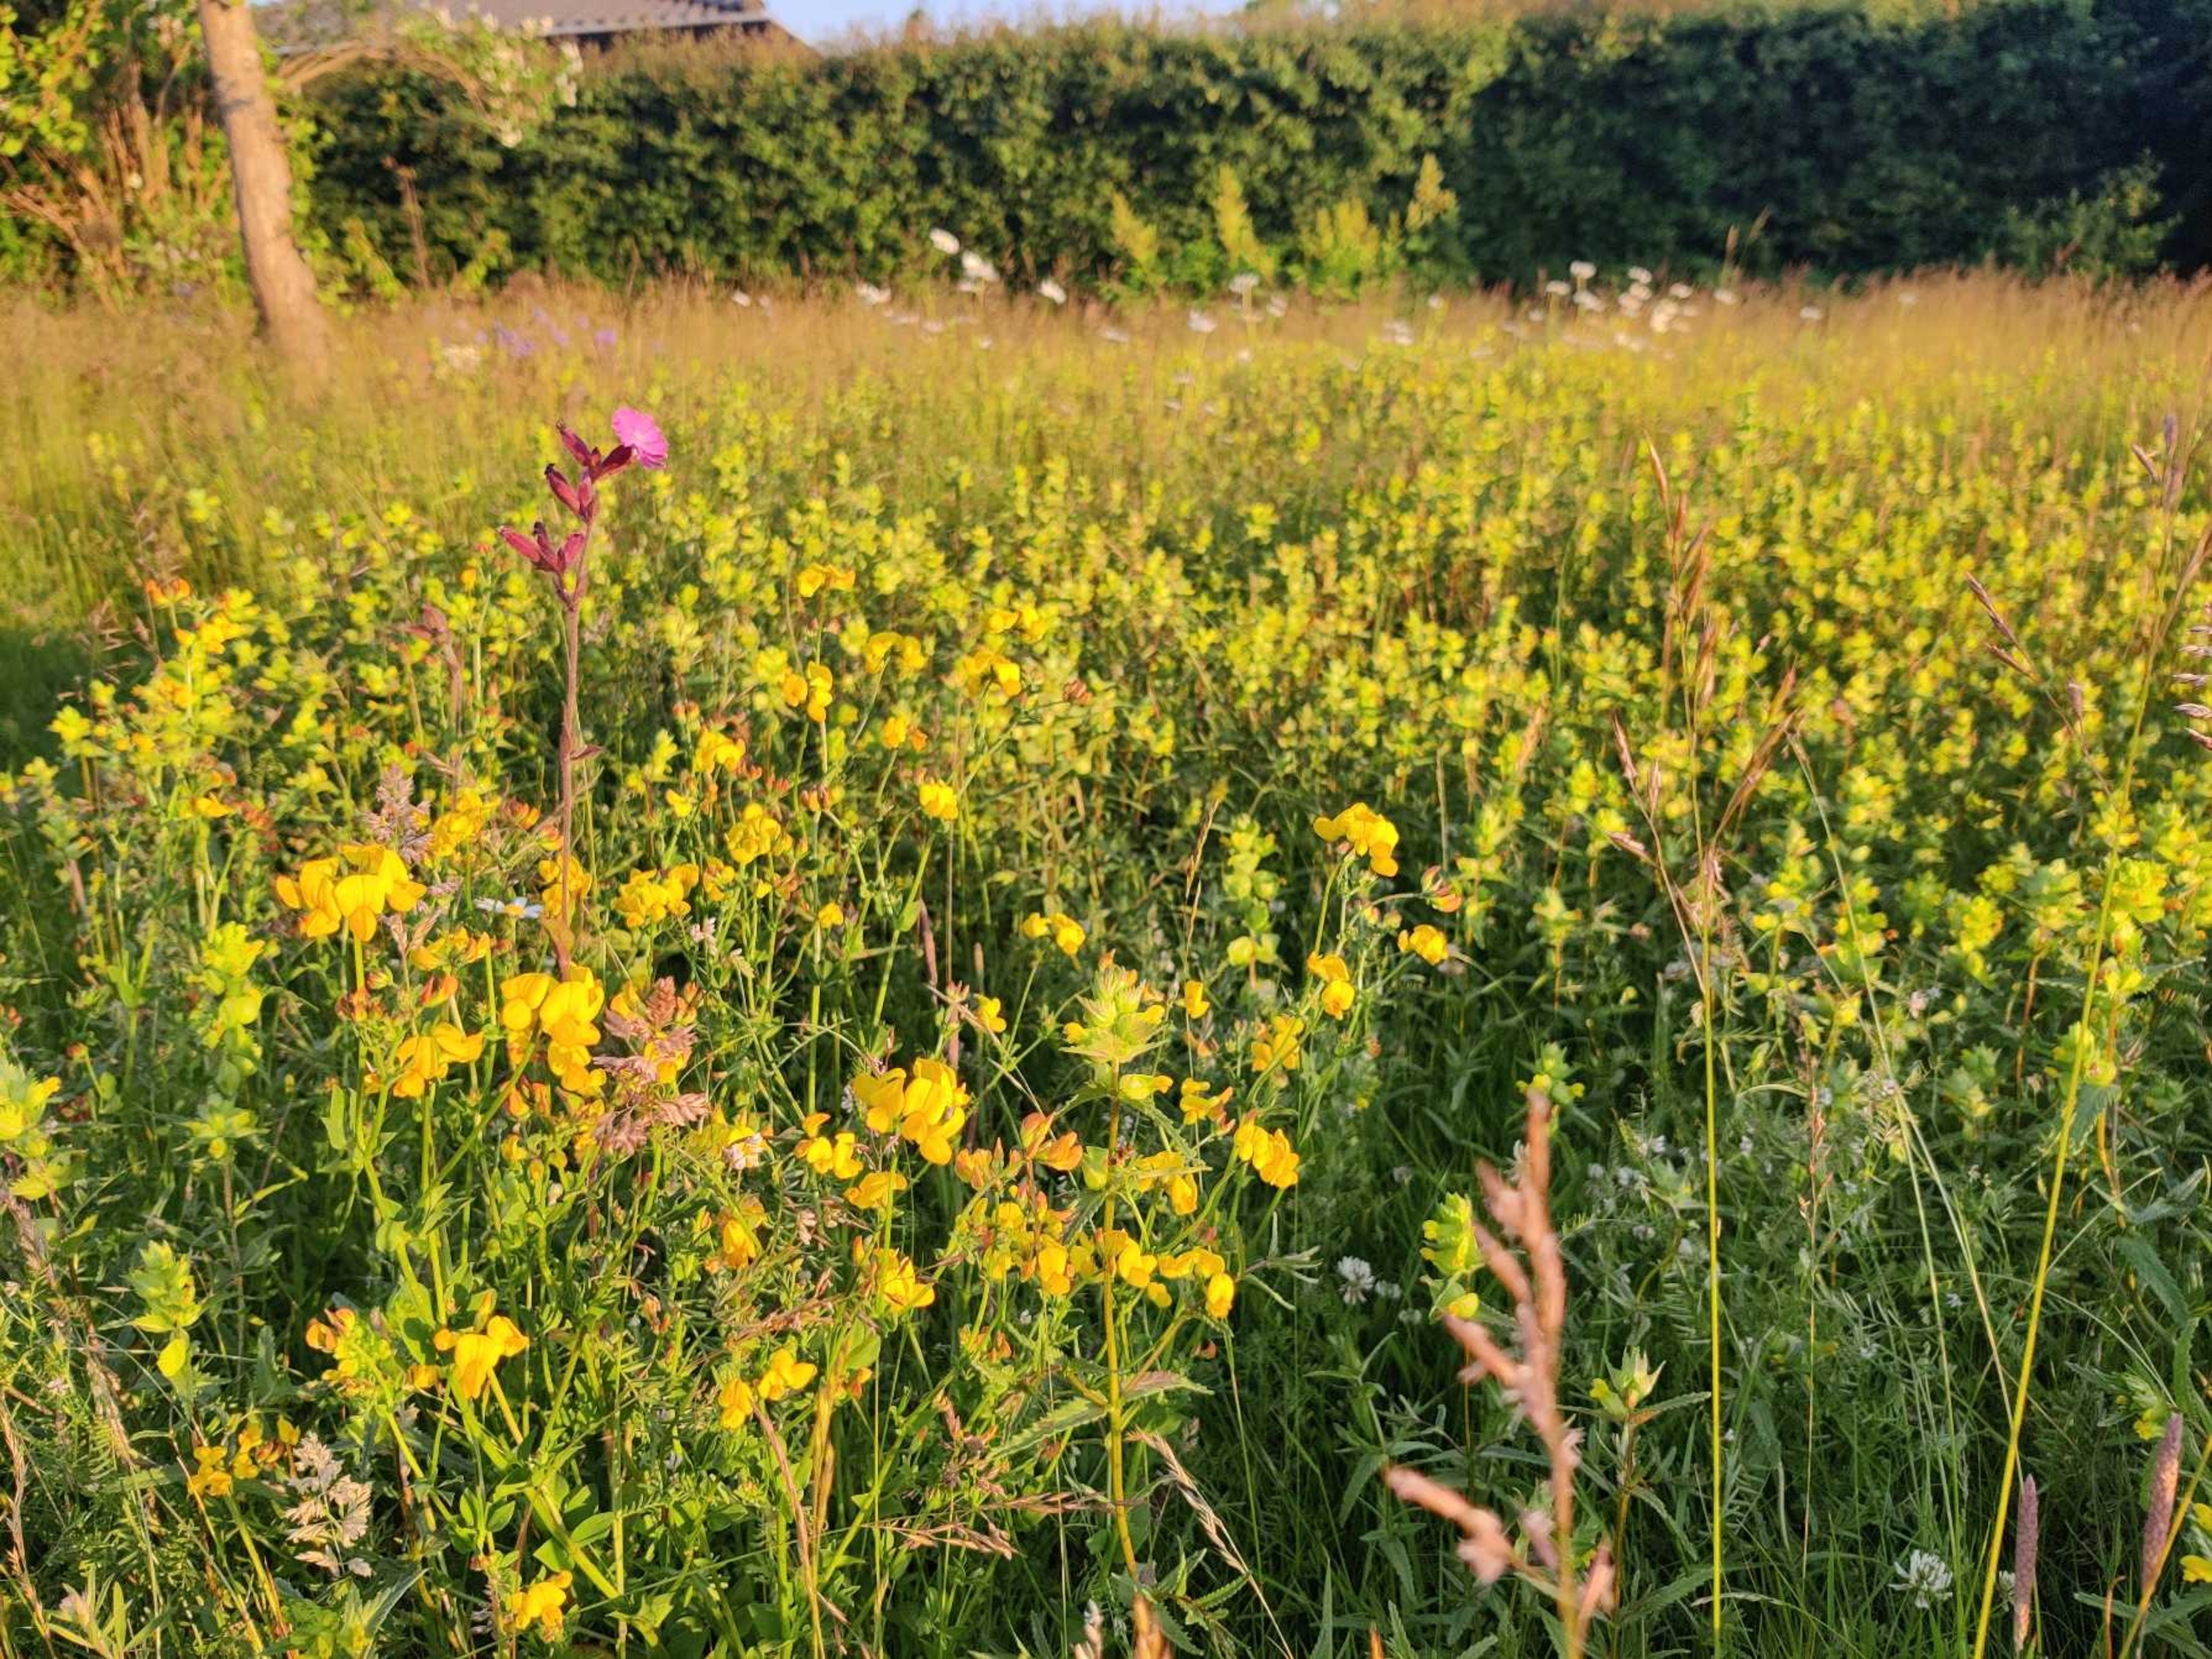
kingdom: Plantae
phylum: Tracheophyta
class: Magnoliopsida
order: Fabales
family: Fabaceae
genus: Lotus
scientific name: Lotus corniculatus
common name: Almindelig kællingetand
